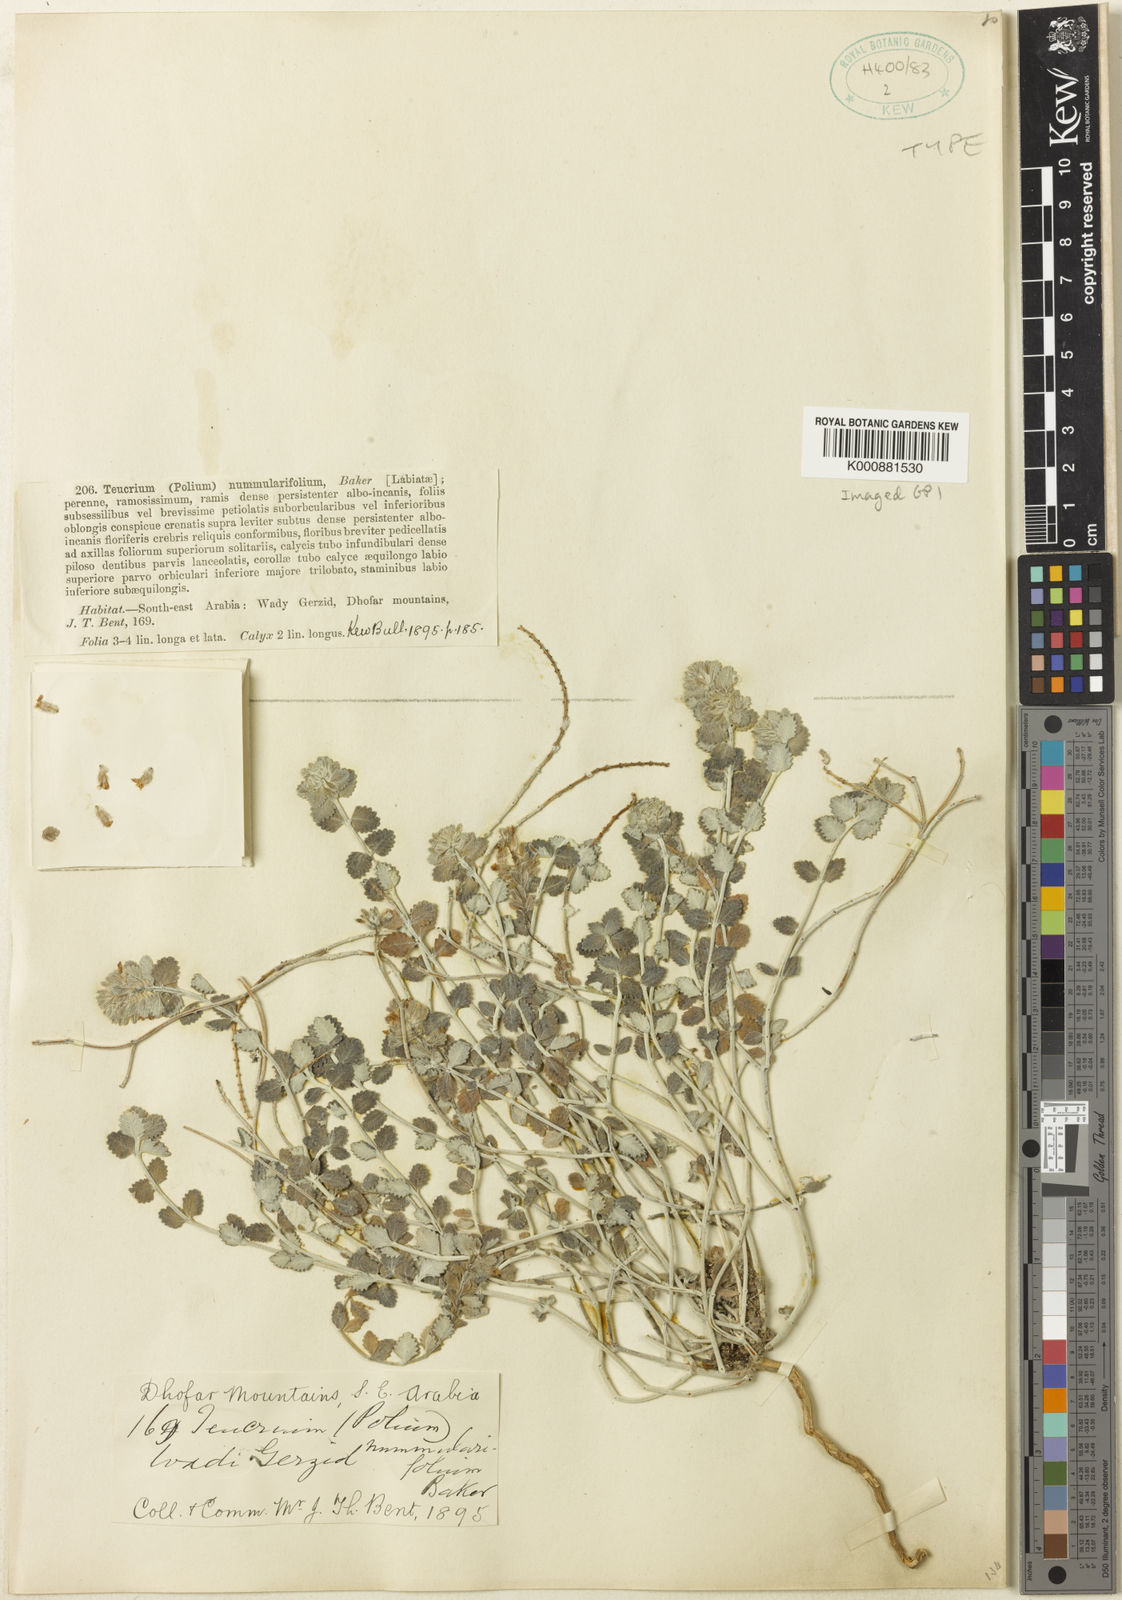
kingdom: Plantae
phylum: Tracheophyta
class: Magnoliopsida
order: Lamiales
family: Lamiaceae
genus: Teucrium
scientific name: Teucrium nummulariifolium
